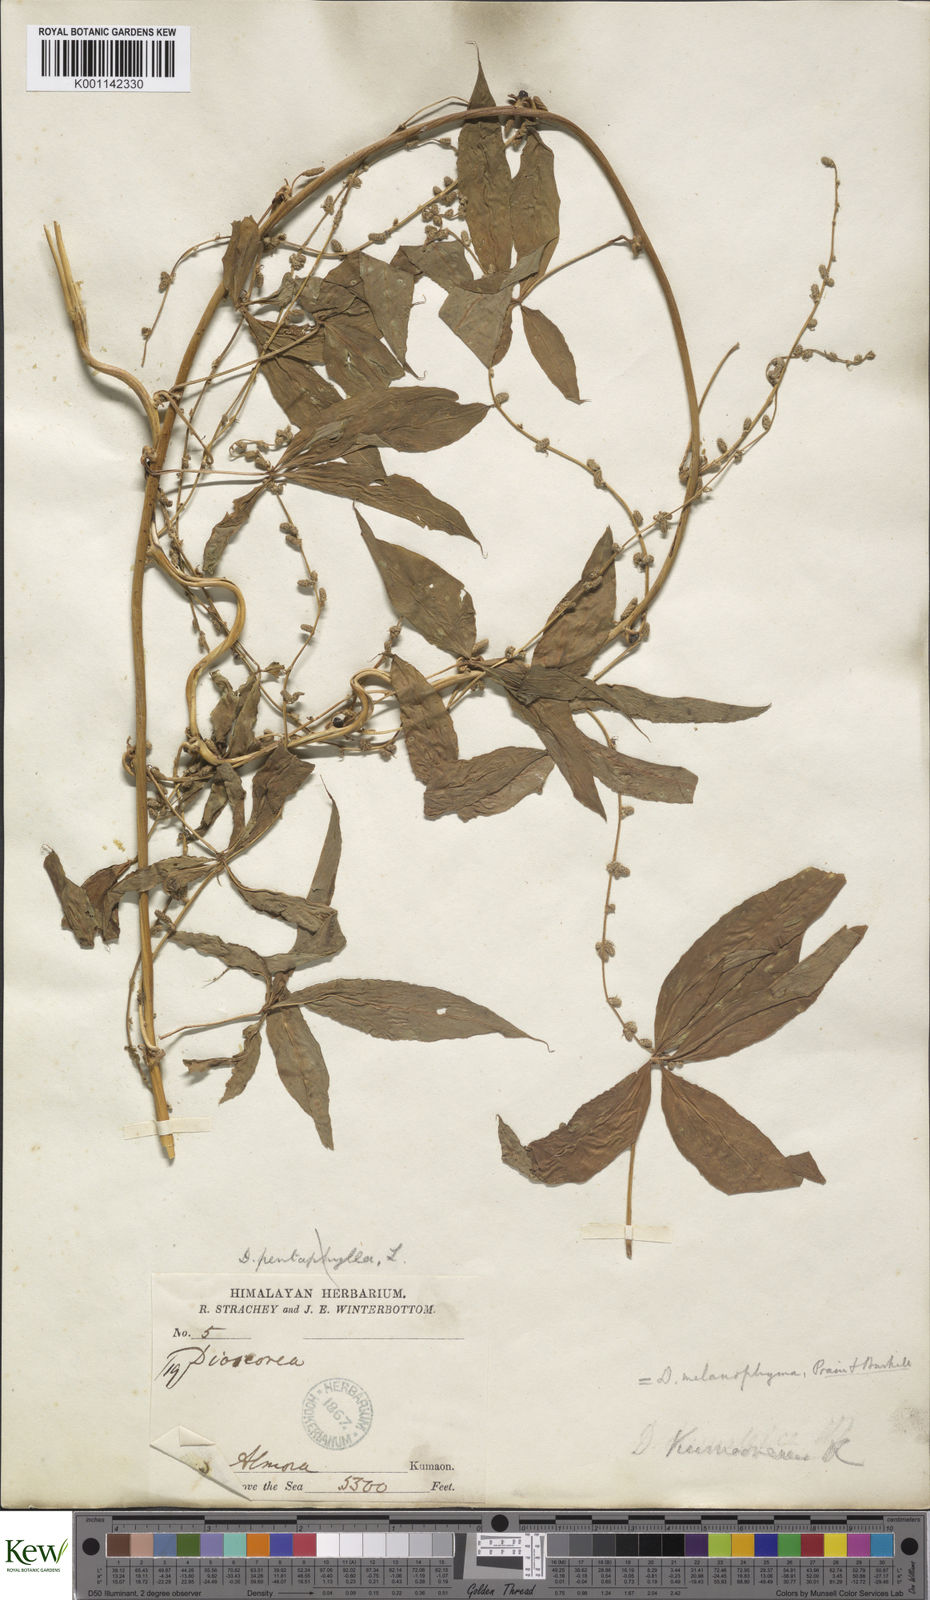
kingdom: Plantae
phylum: Tracheophyta
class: Liliopsida
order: Dioscoreales
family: Dioscoreaceae
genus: Dioscorea
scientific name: Dioscorea melanophyma
